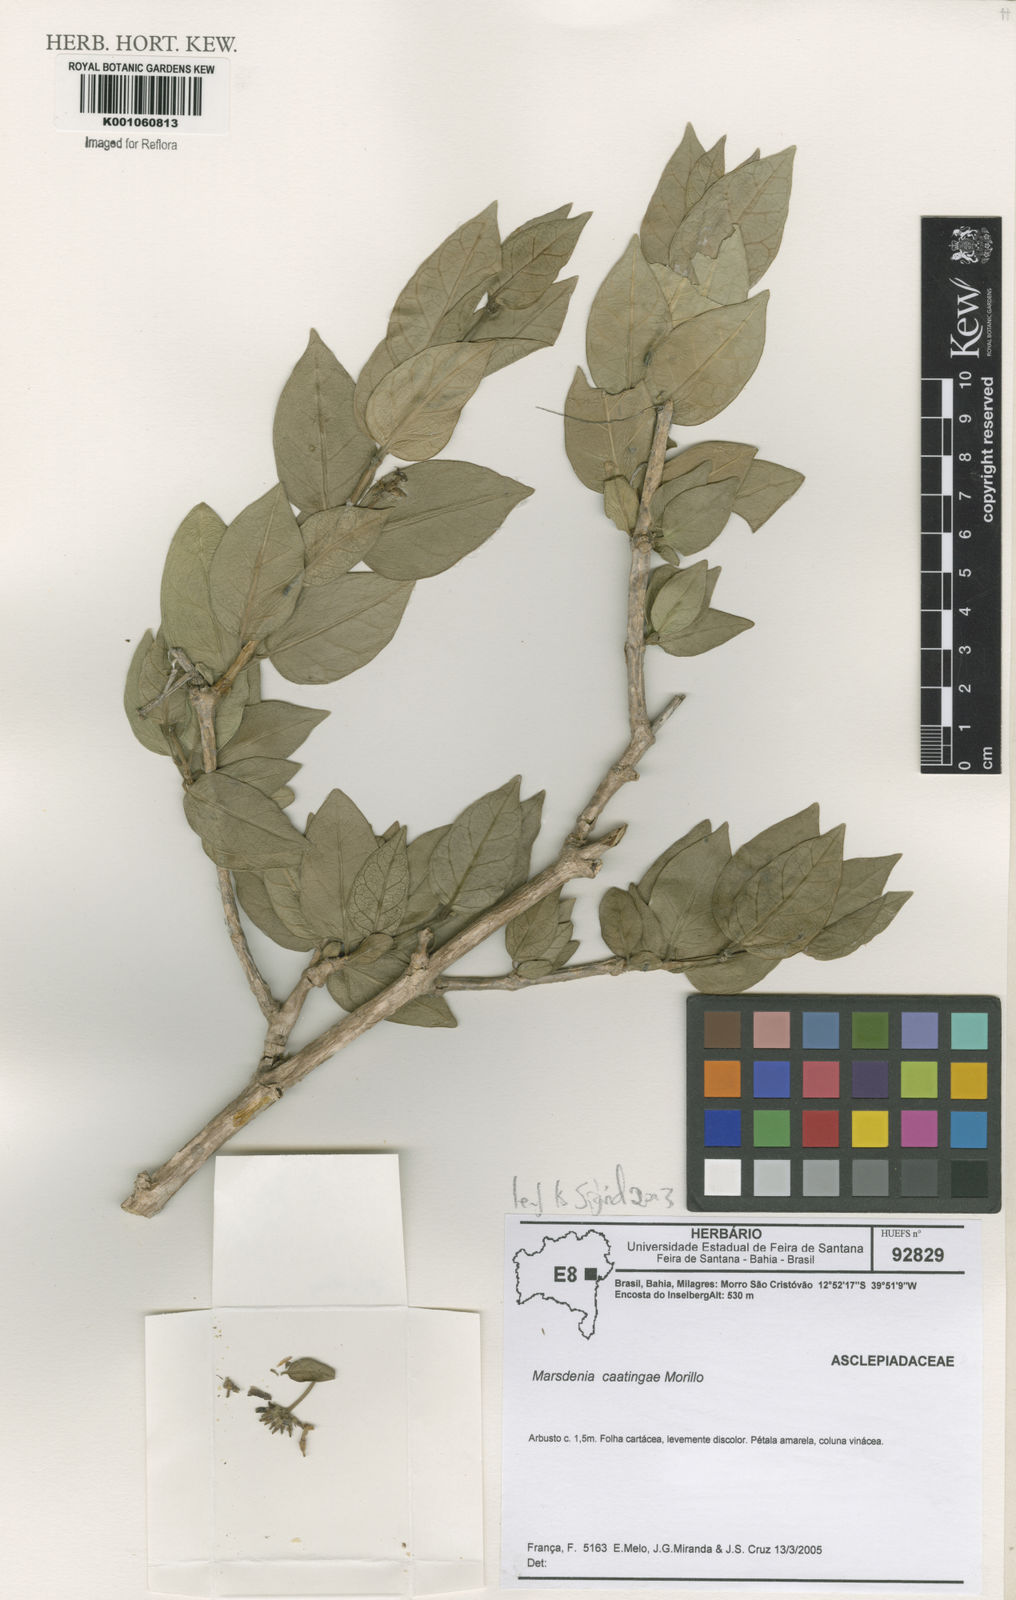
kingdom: Plantae
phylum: Tracheophyta
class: Magnoliopsida
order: Gentianales
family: Apocynaceae
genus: Ruehssia
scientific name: Ruehssia caatingae
